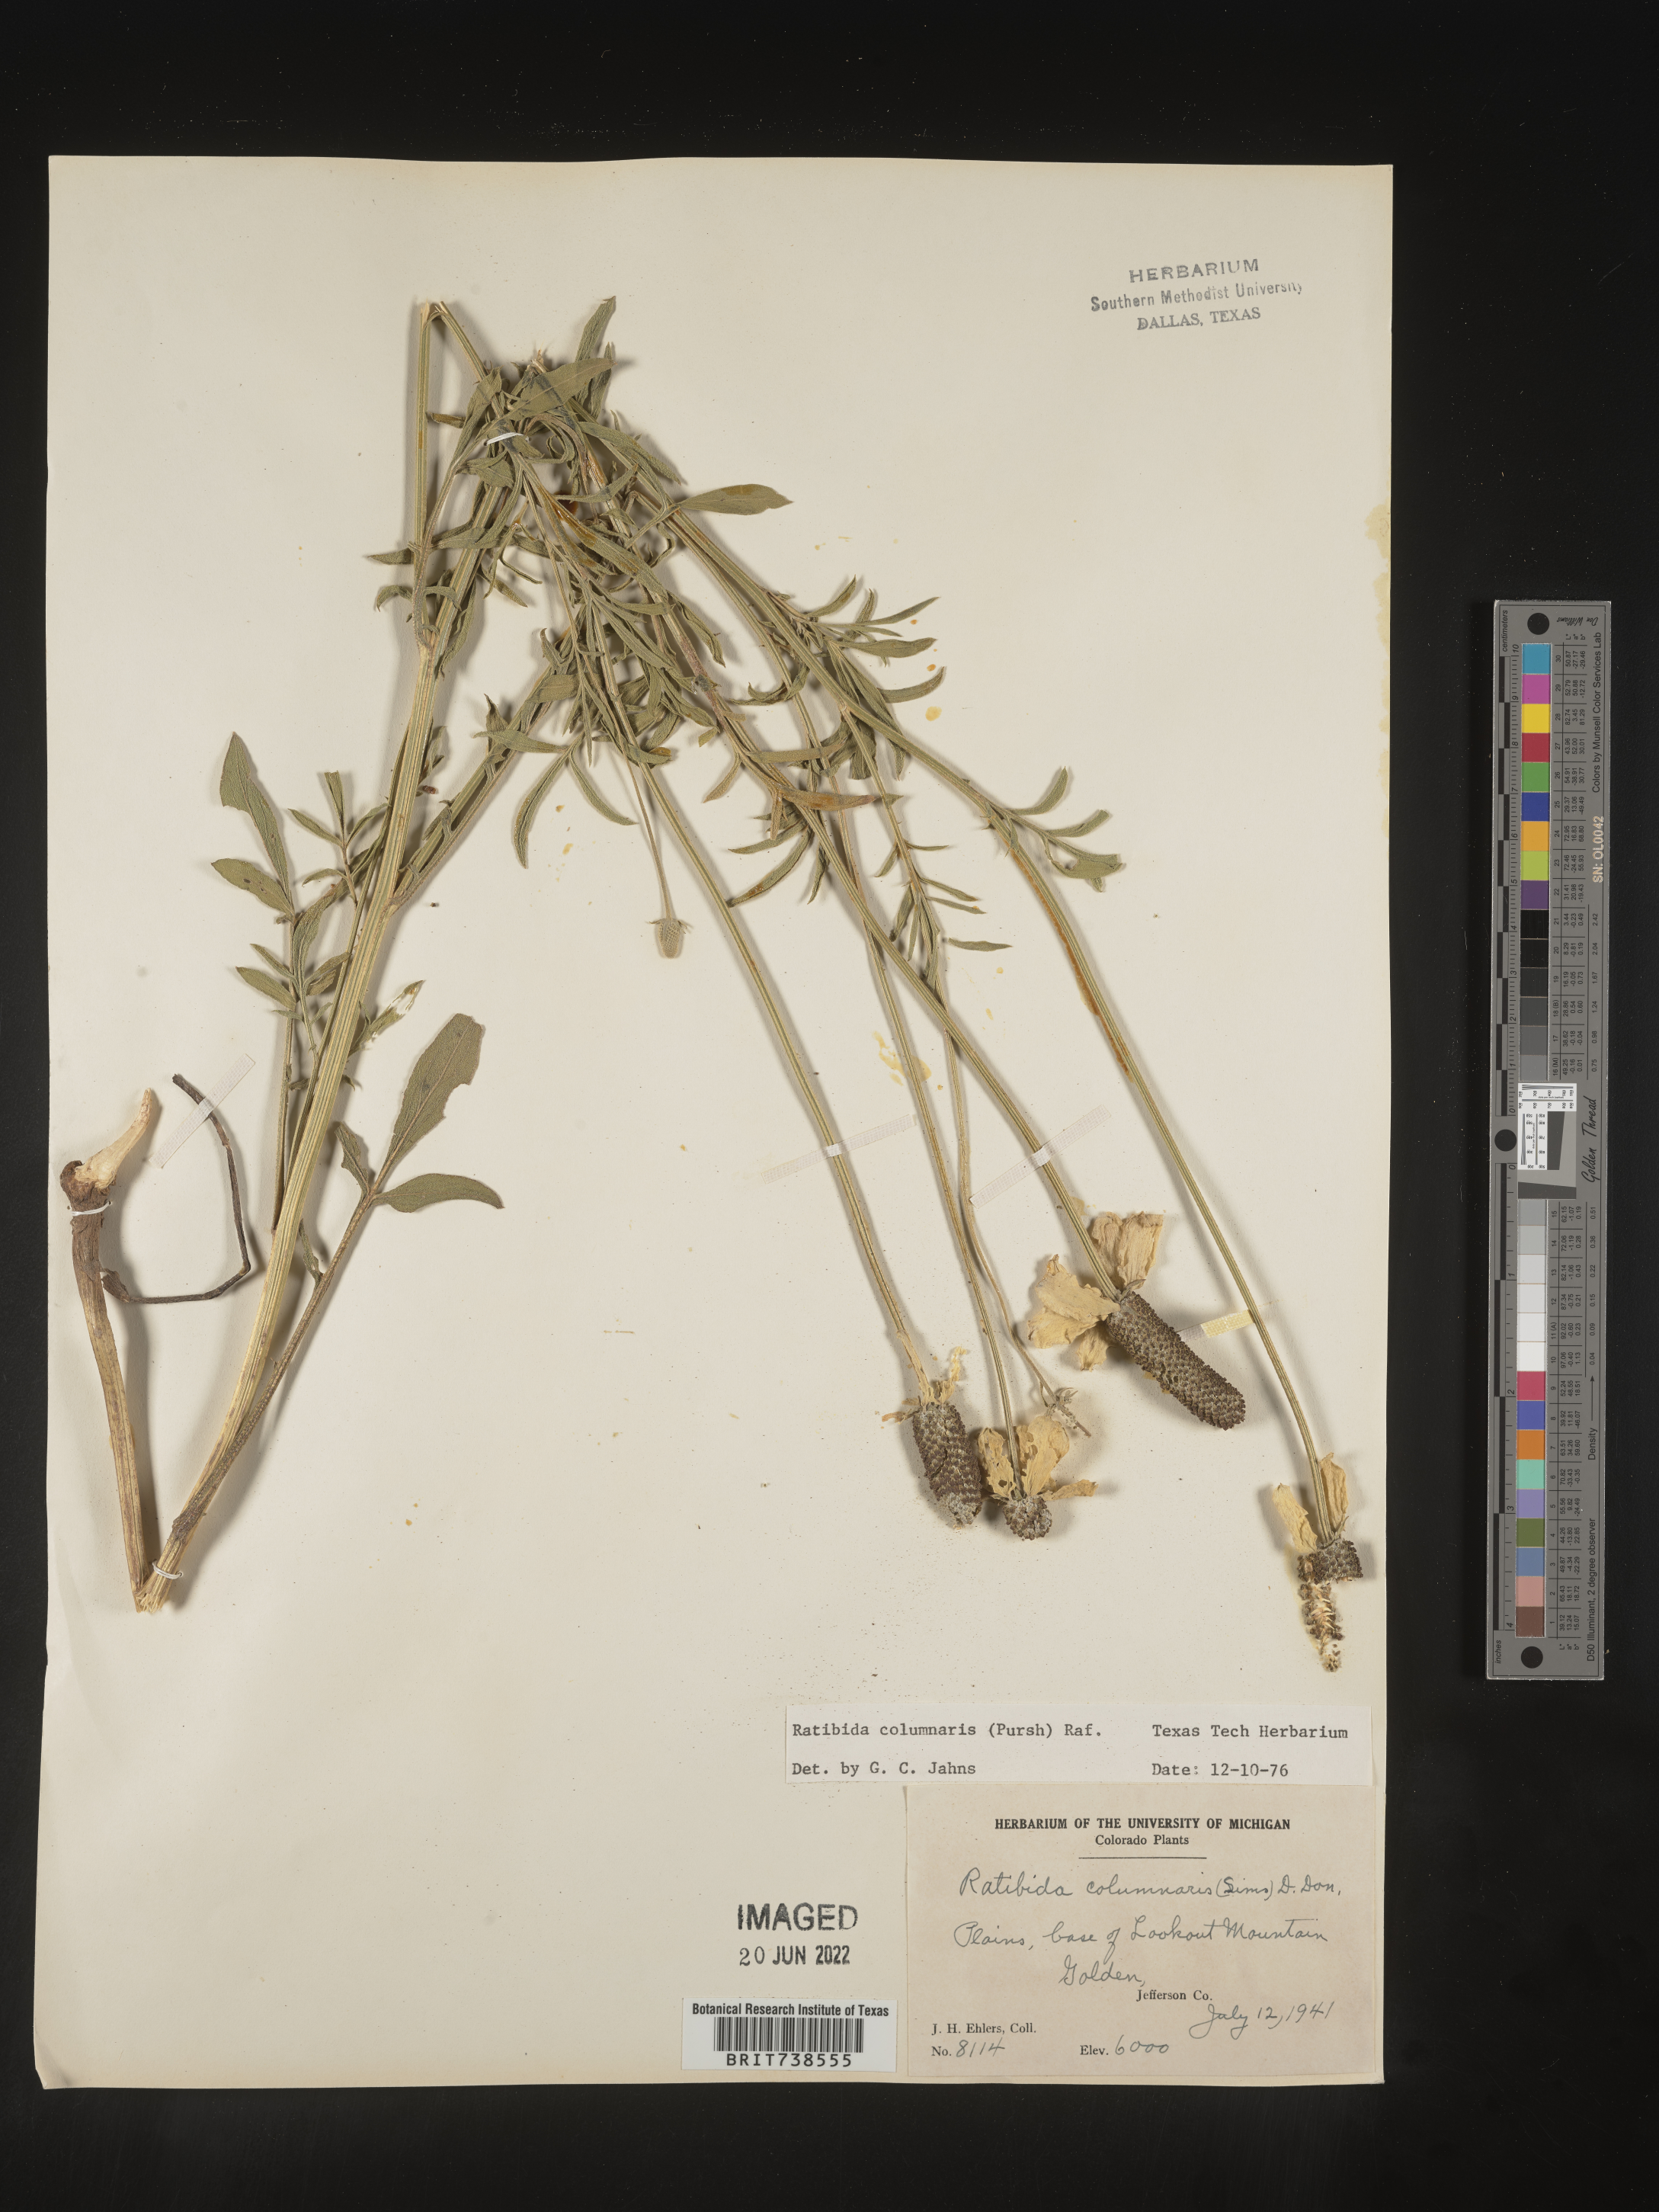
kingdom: Plantae
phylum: Tracheophyta
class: Magnoliopsida
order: Asterales
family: Asteraceae
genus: Ratibida
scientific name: Ratibida columnifera
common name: Prairie coneflower
